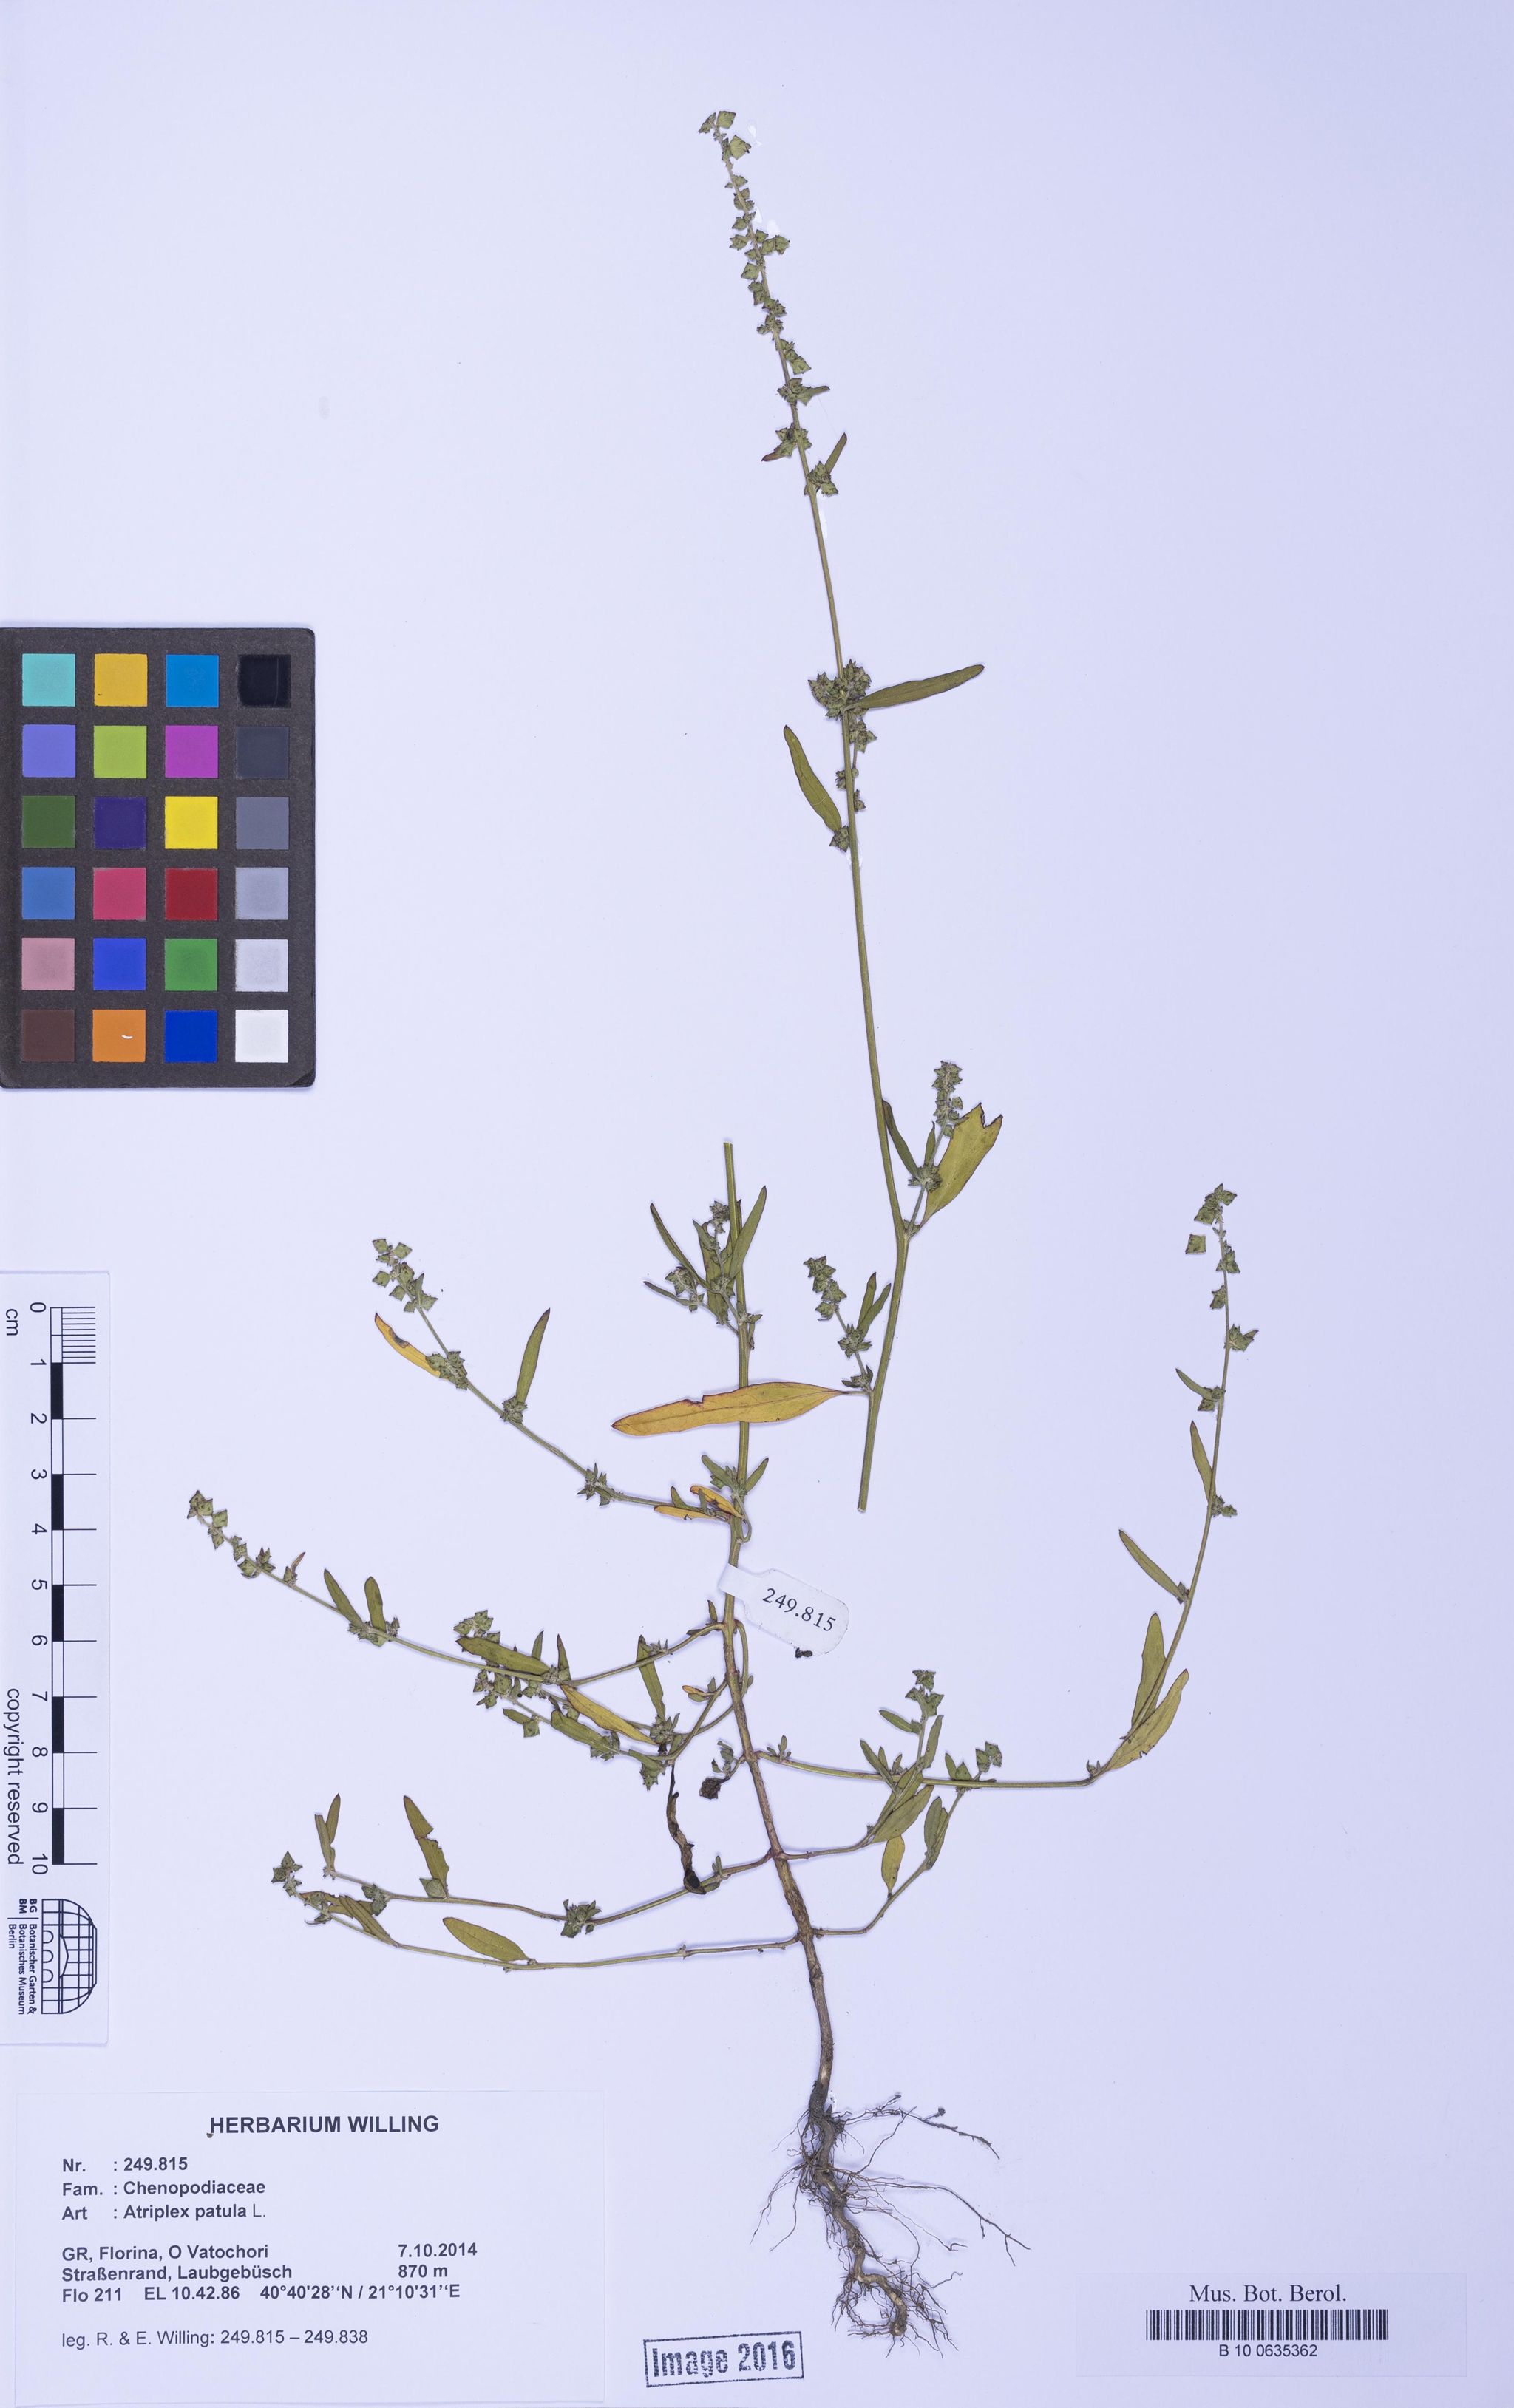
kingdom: Plantae
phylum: Tracheophyta
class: Magnoliopsida
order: Caryophyllales
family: Amaranthaceae
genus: Atriplex
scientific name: Atriplex patula
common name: Common orache
